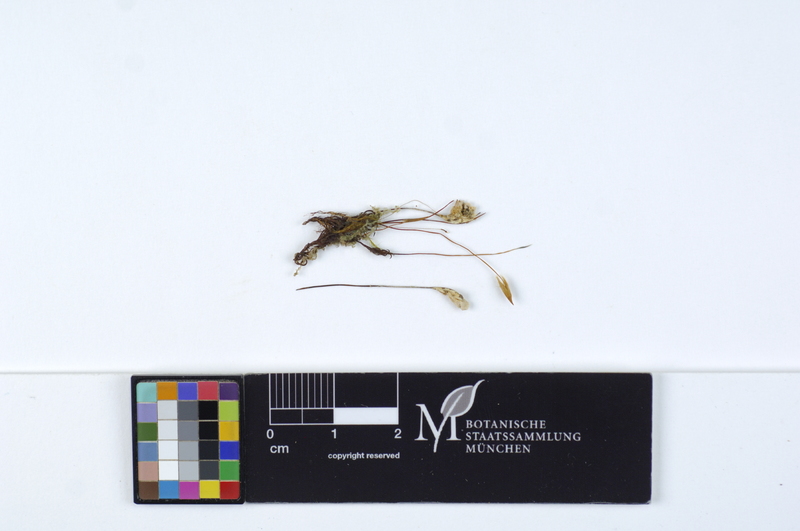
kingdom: Fungi
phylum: Basidiomycota
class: Agaricomycetes
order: Hymenochaetales
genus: Muscinupta
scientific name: Muscinupta laevis
